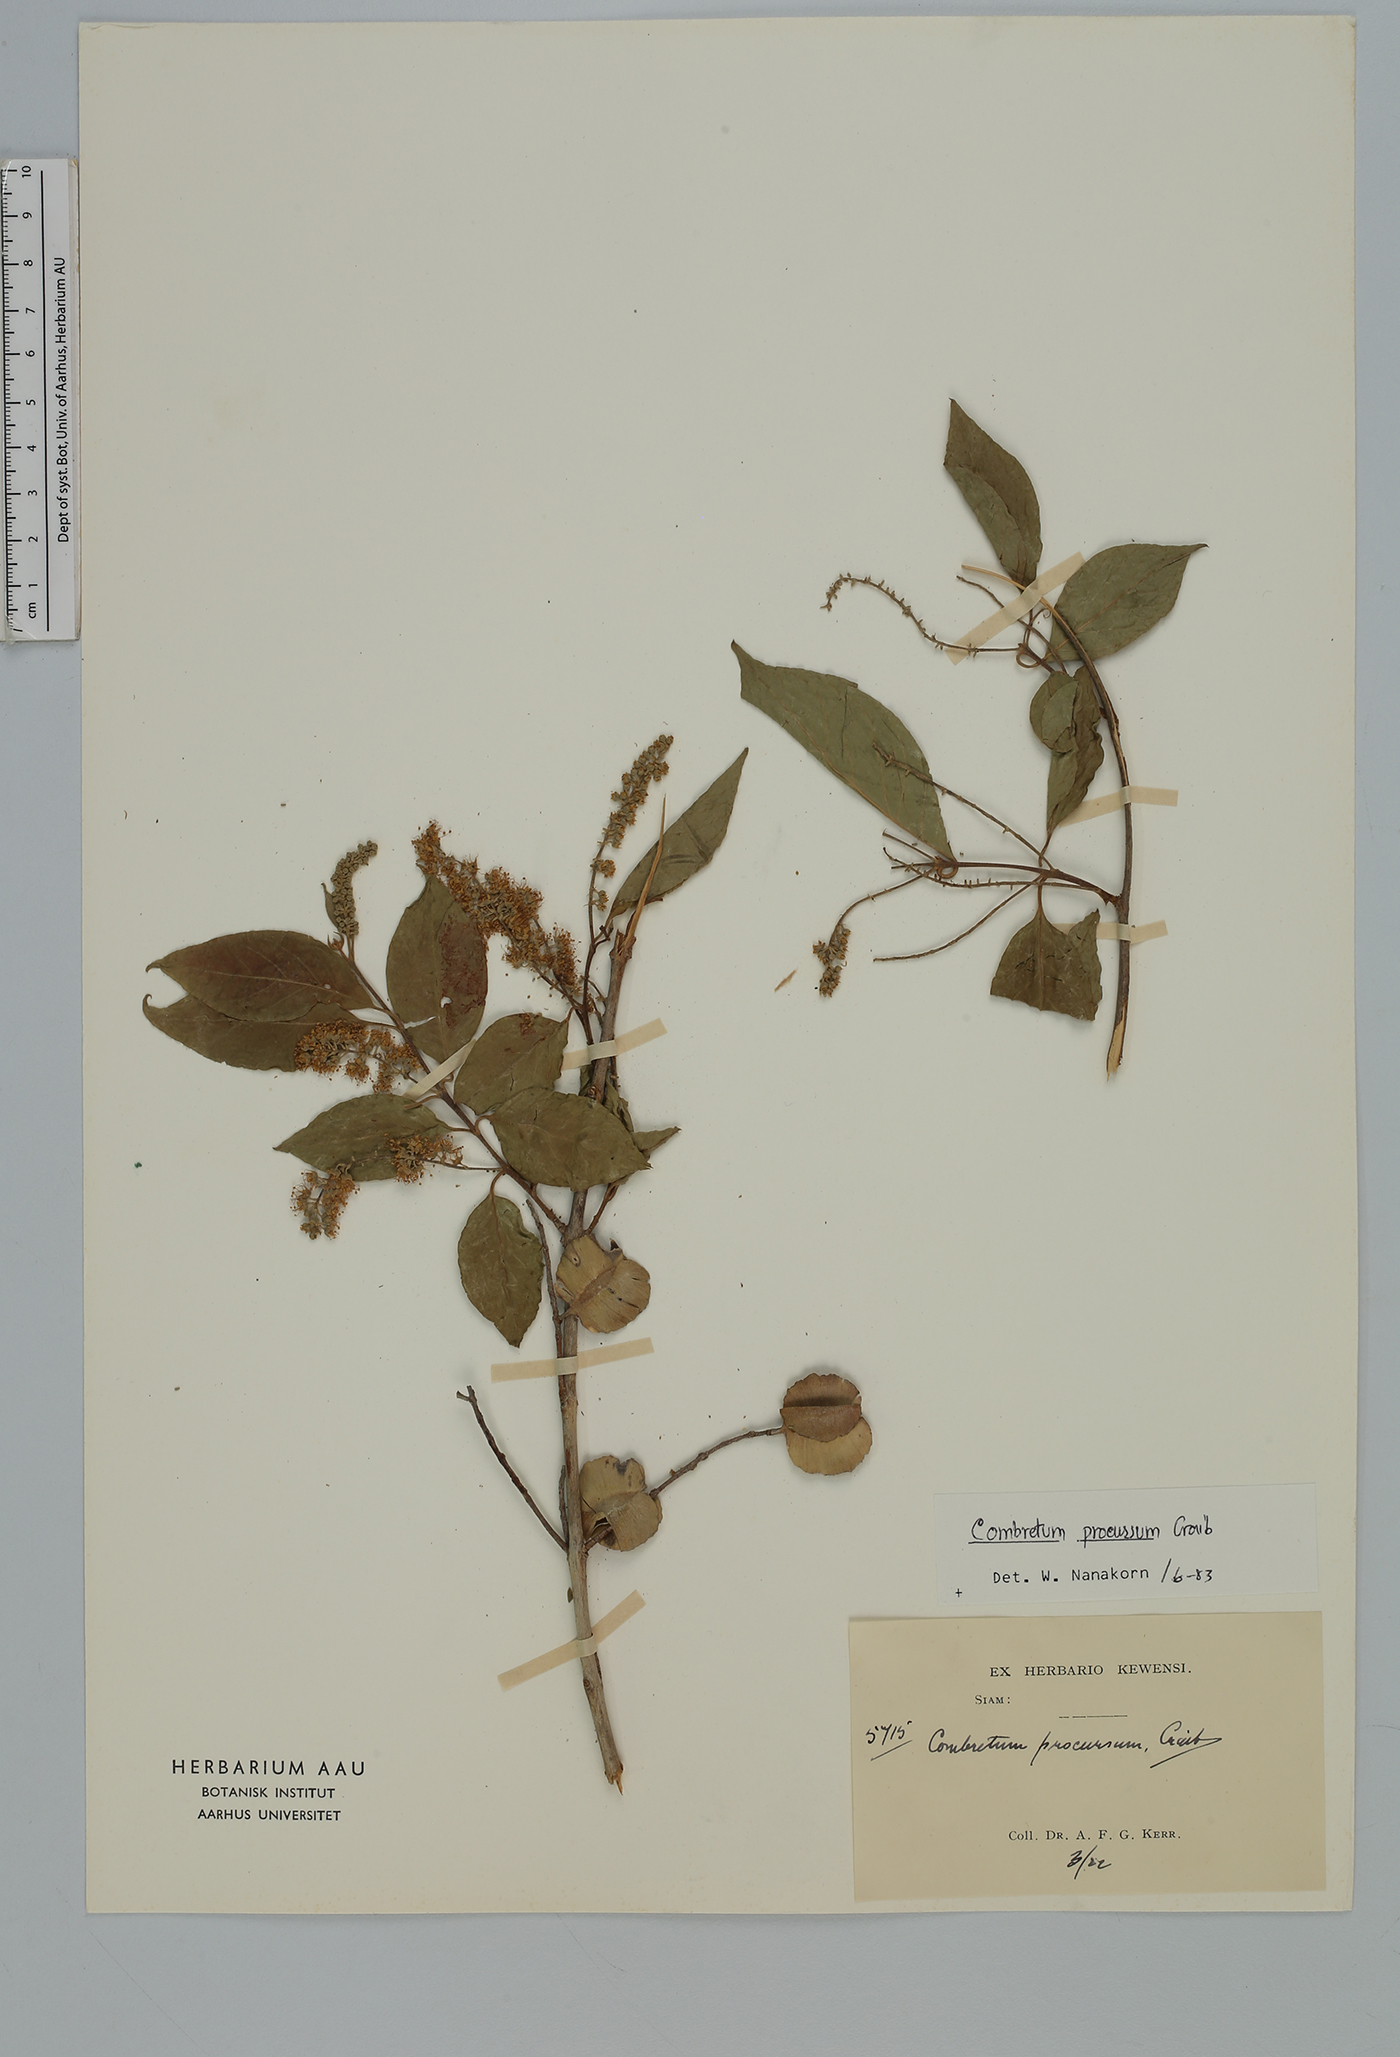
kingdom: Plantae
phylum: Tracheophyta
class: Magnoliopsida
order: Myrtales
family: Combretaceae
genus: Combretum
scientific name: Combretum procursum
